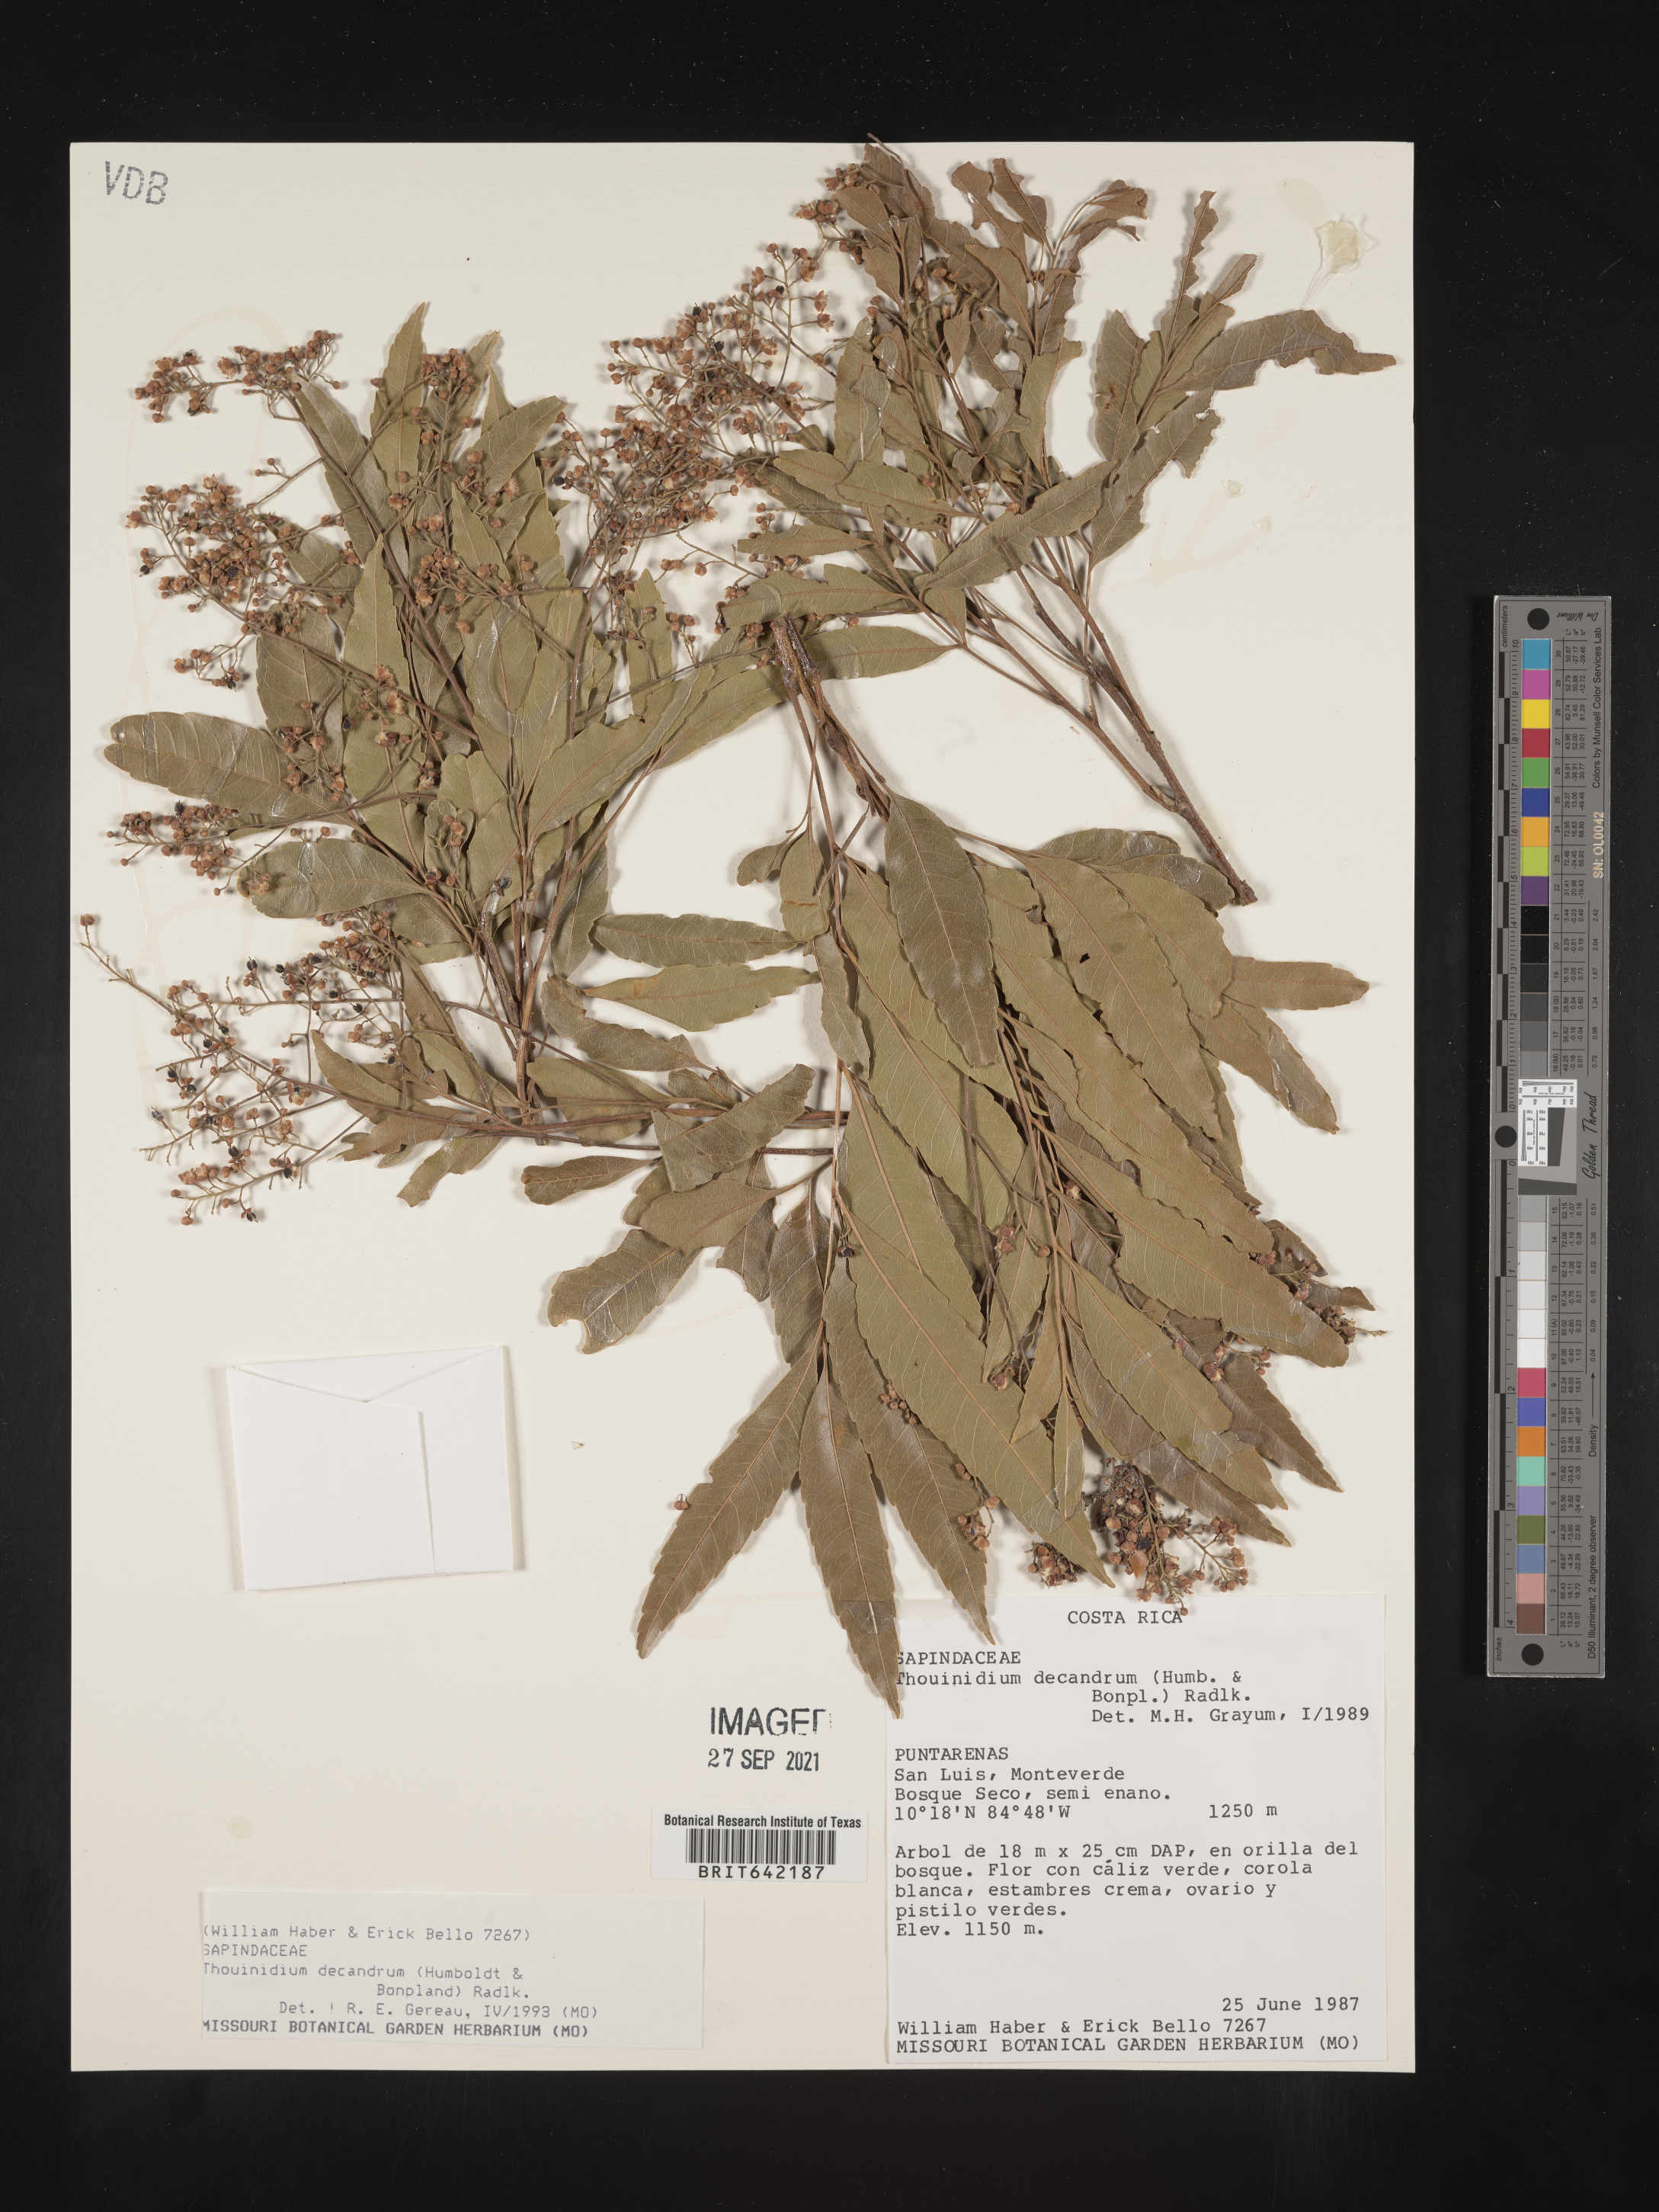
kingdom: Plantae
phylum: Tracheophyta
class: Magnoliopsida
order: Sapindales
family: Sapindaceae
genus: Thouinidium
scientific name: Thouinidium
